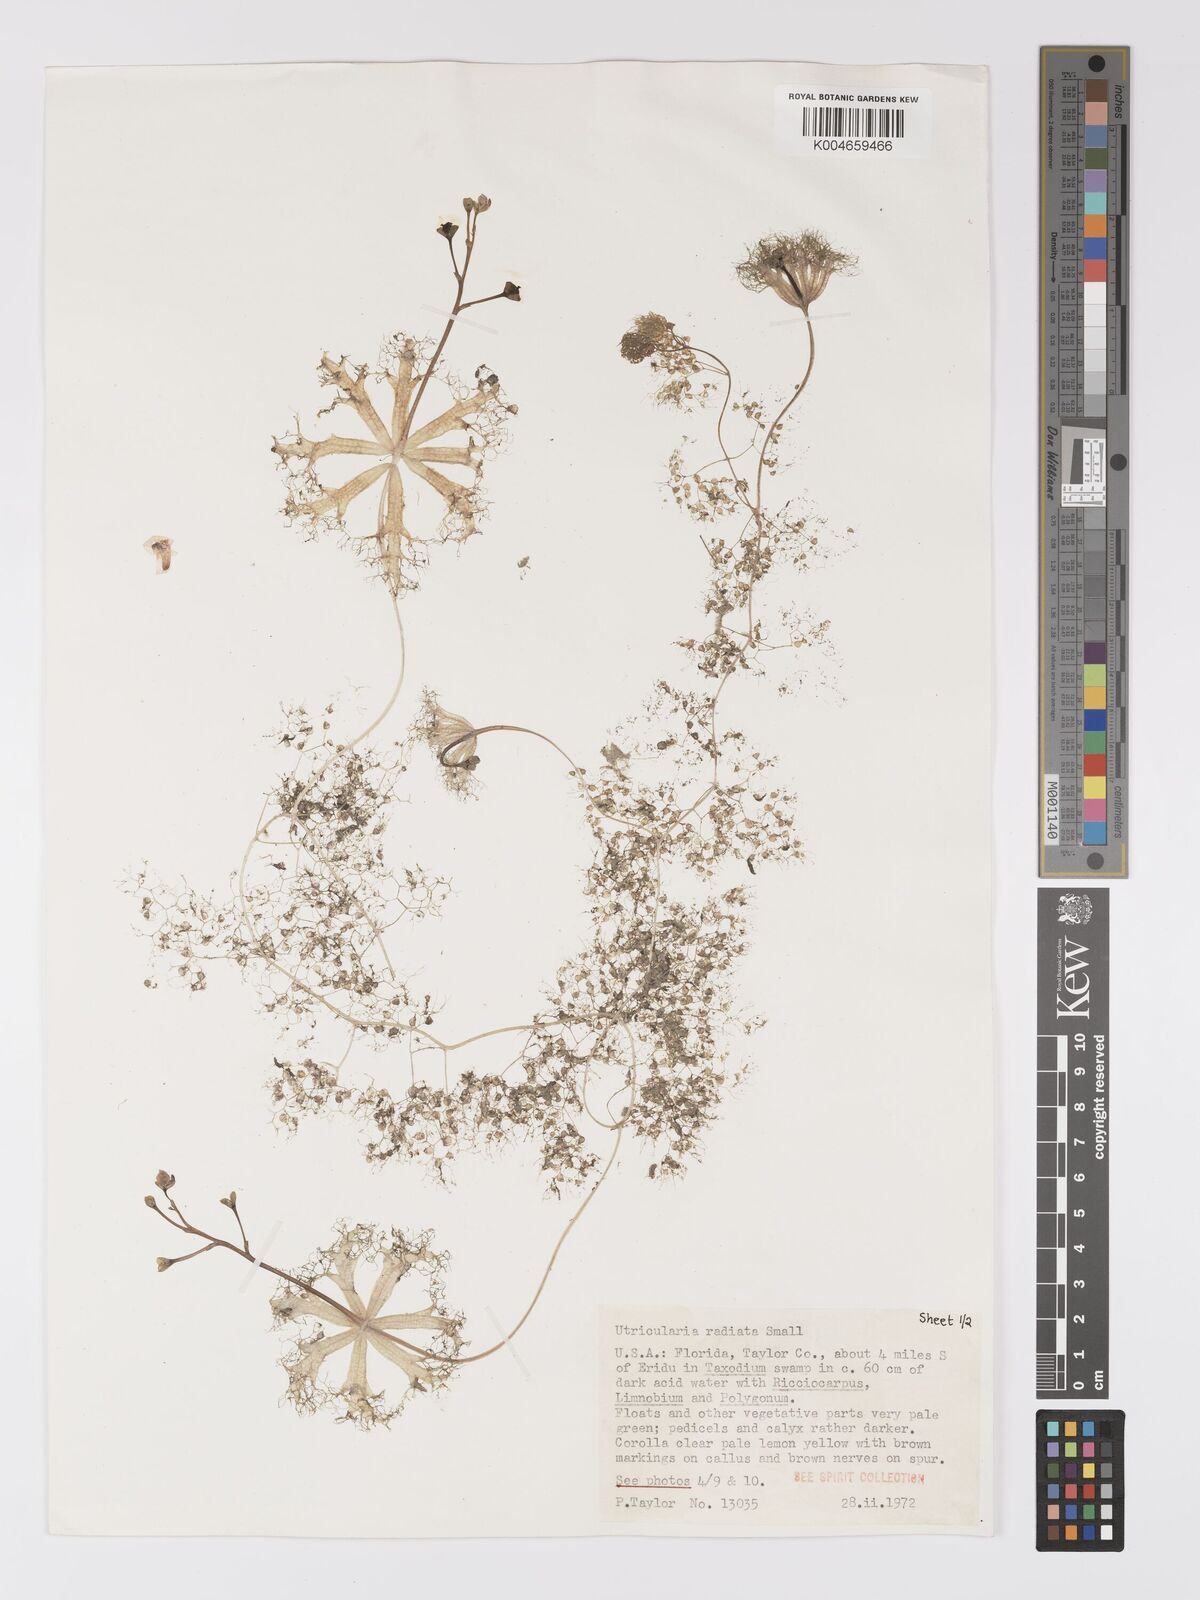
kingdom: Plantae
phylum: Tracheophyta
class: Magnoliopsida
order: Lamiales
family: Lentibulariaceae
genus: Utricularia
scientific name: Utricularia radiata
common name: Floating bladderwort
